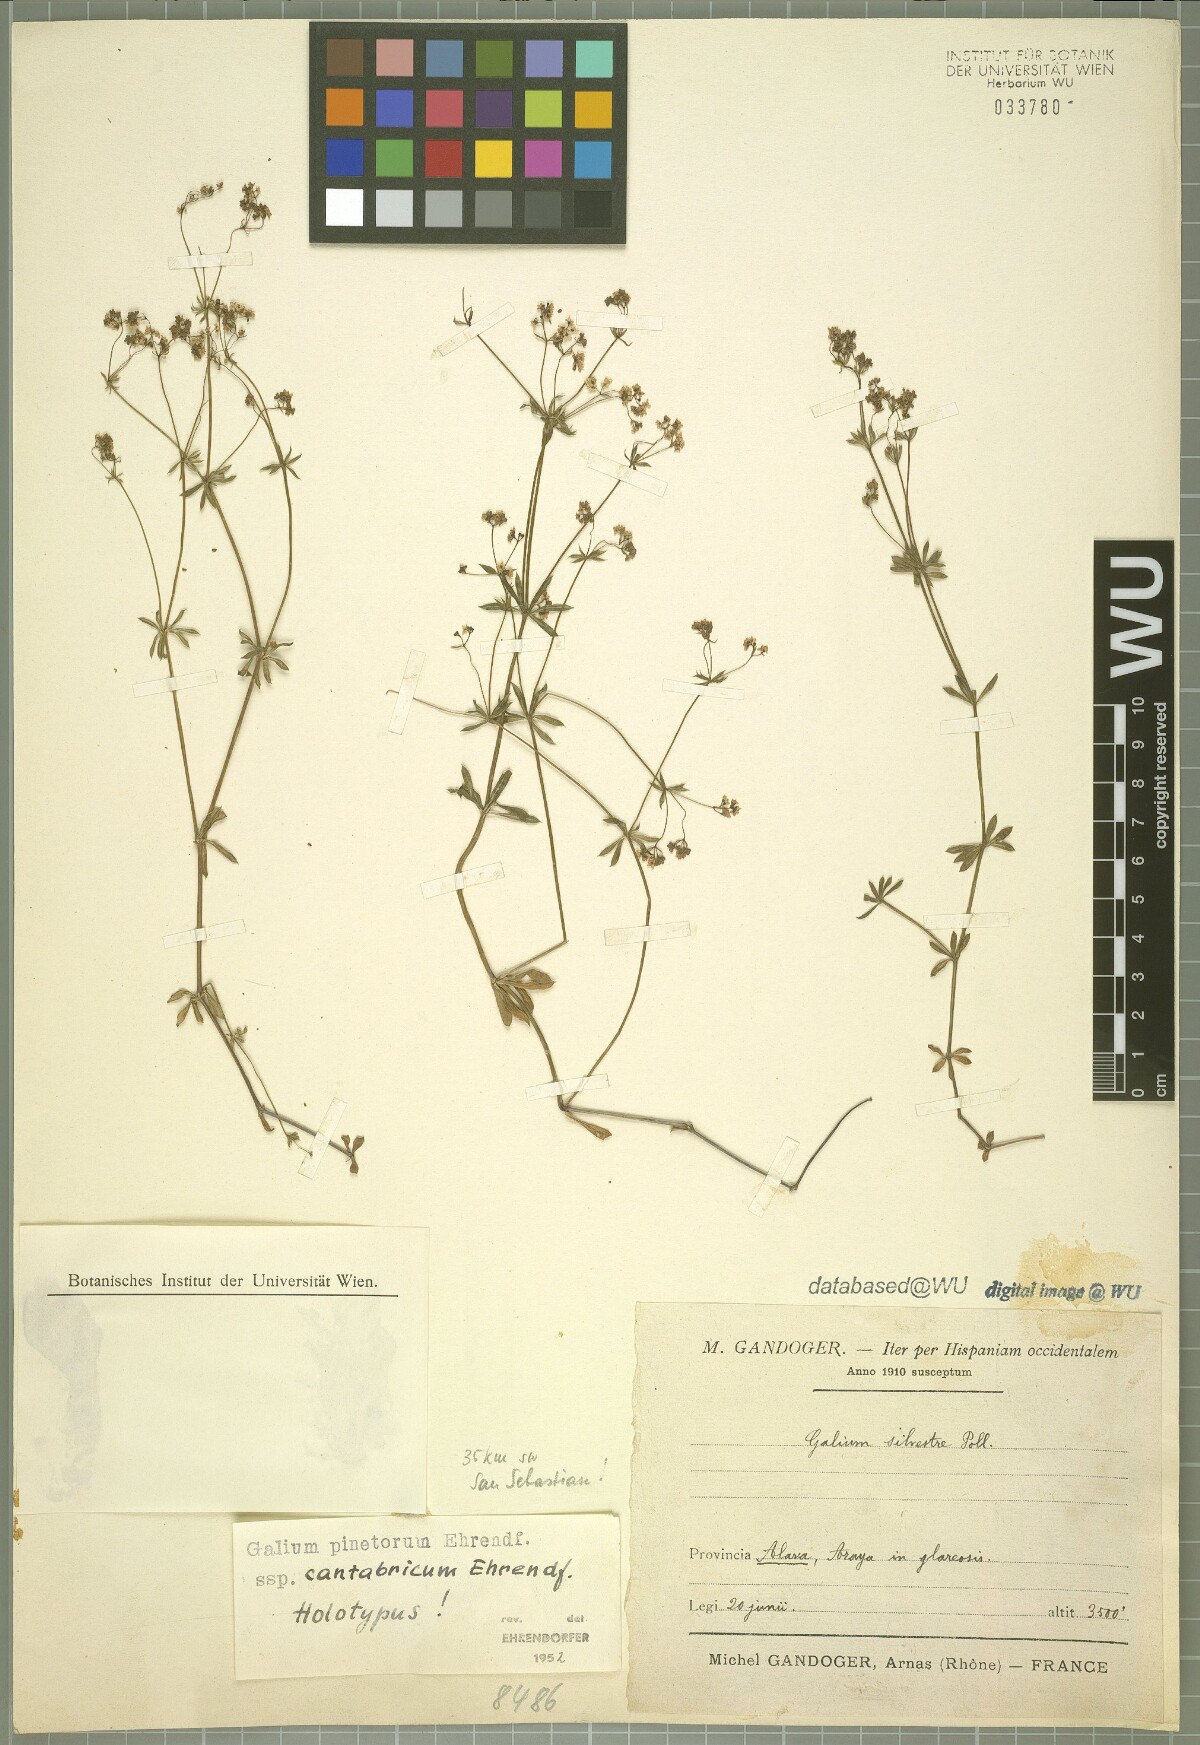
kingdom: Plantae
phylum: Tracheophyta
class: Magnoliopsida
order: Gentianales
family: Rubiaceae
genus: Galium
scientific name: Galium estebanii
